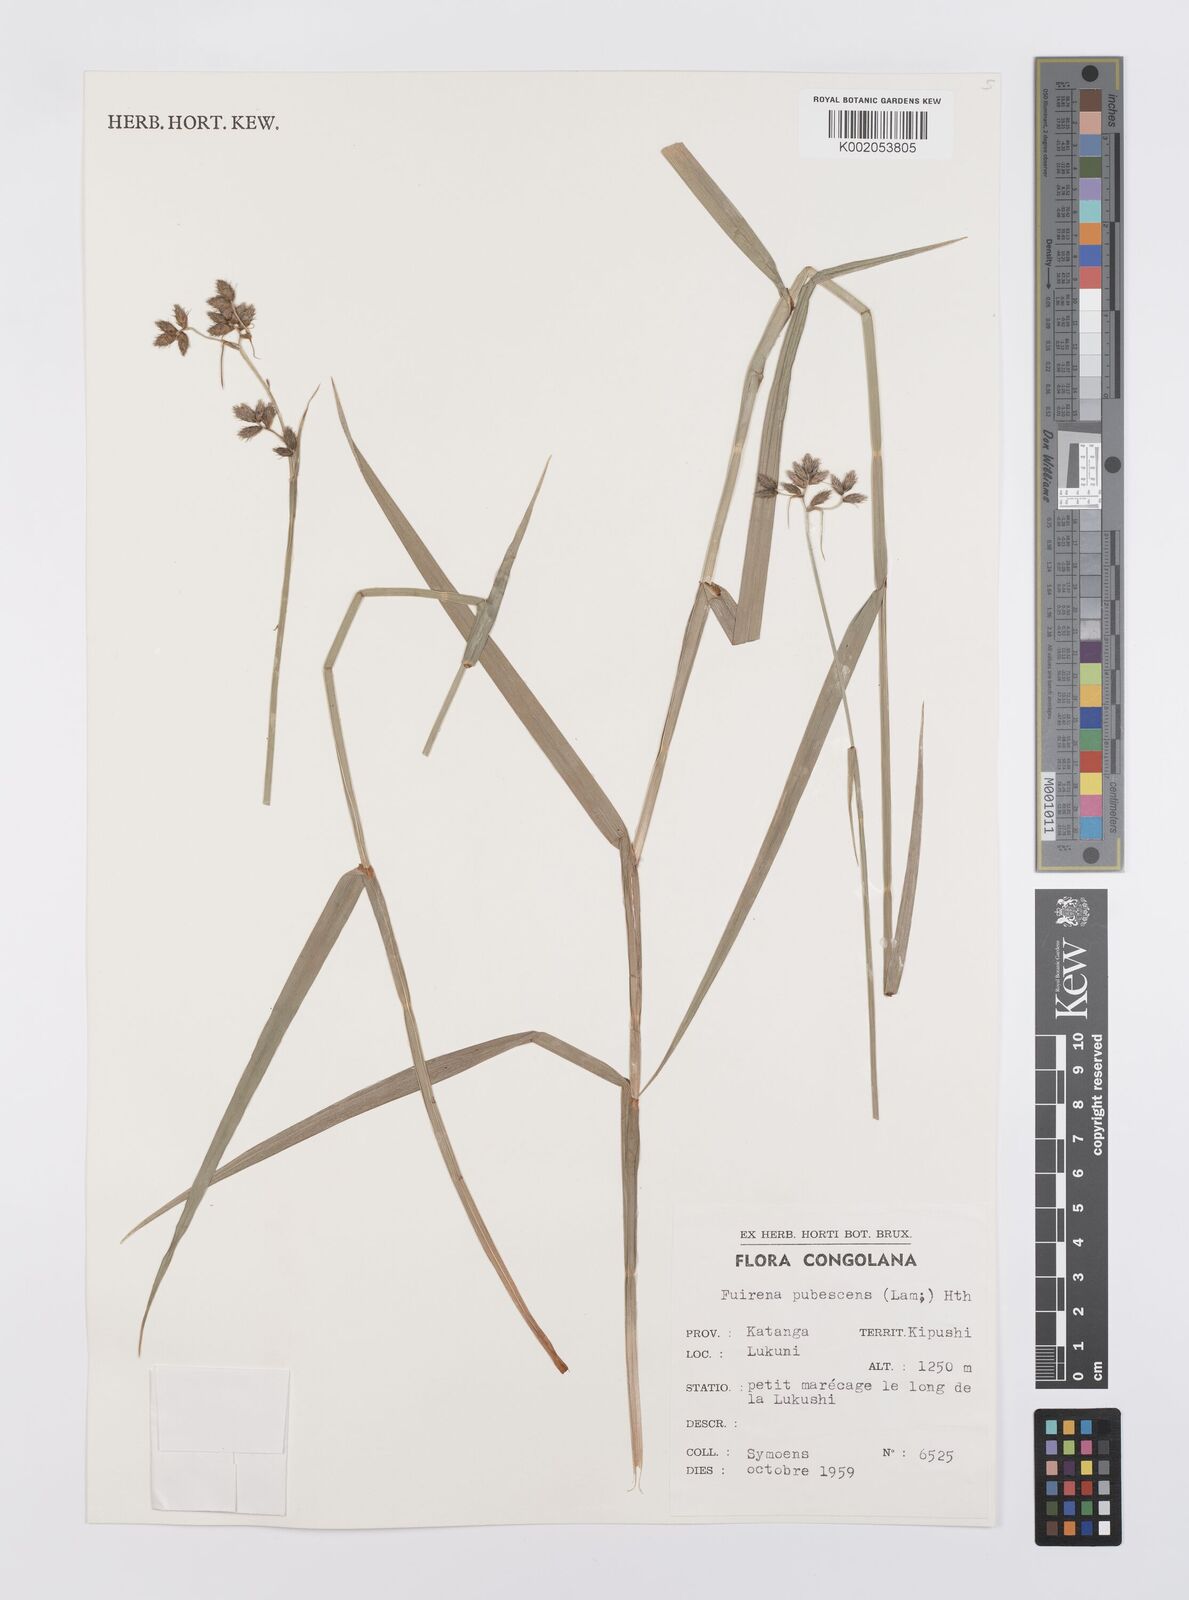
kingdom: Plantae
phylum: Tracheophyta
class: Liliopsida
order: Poales
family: Cyperaceae
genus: Fuirena
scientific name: Fuirena pubescens
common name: Hairy sedge
